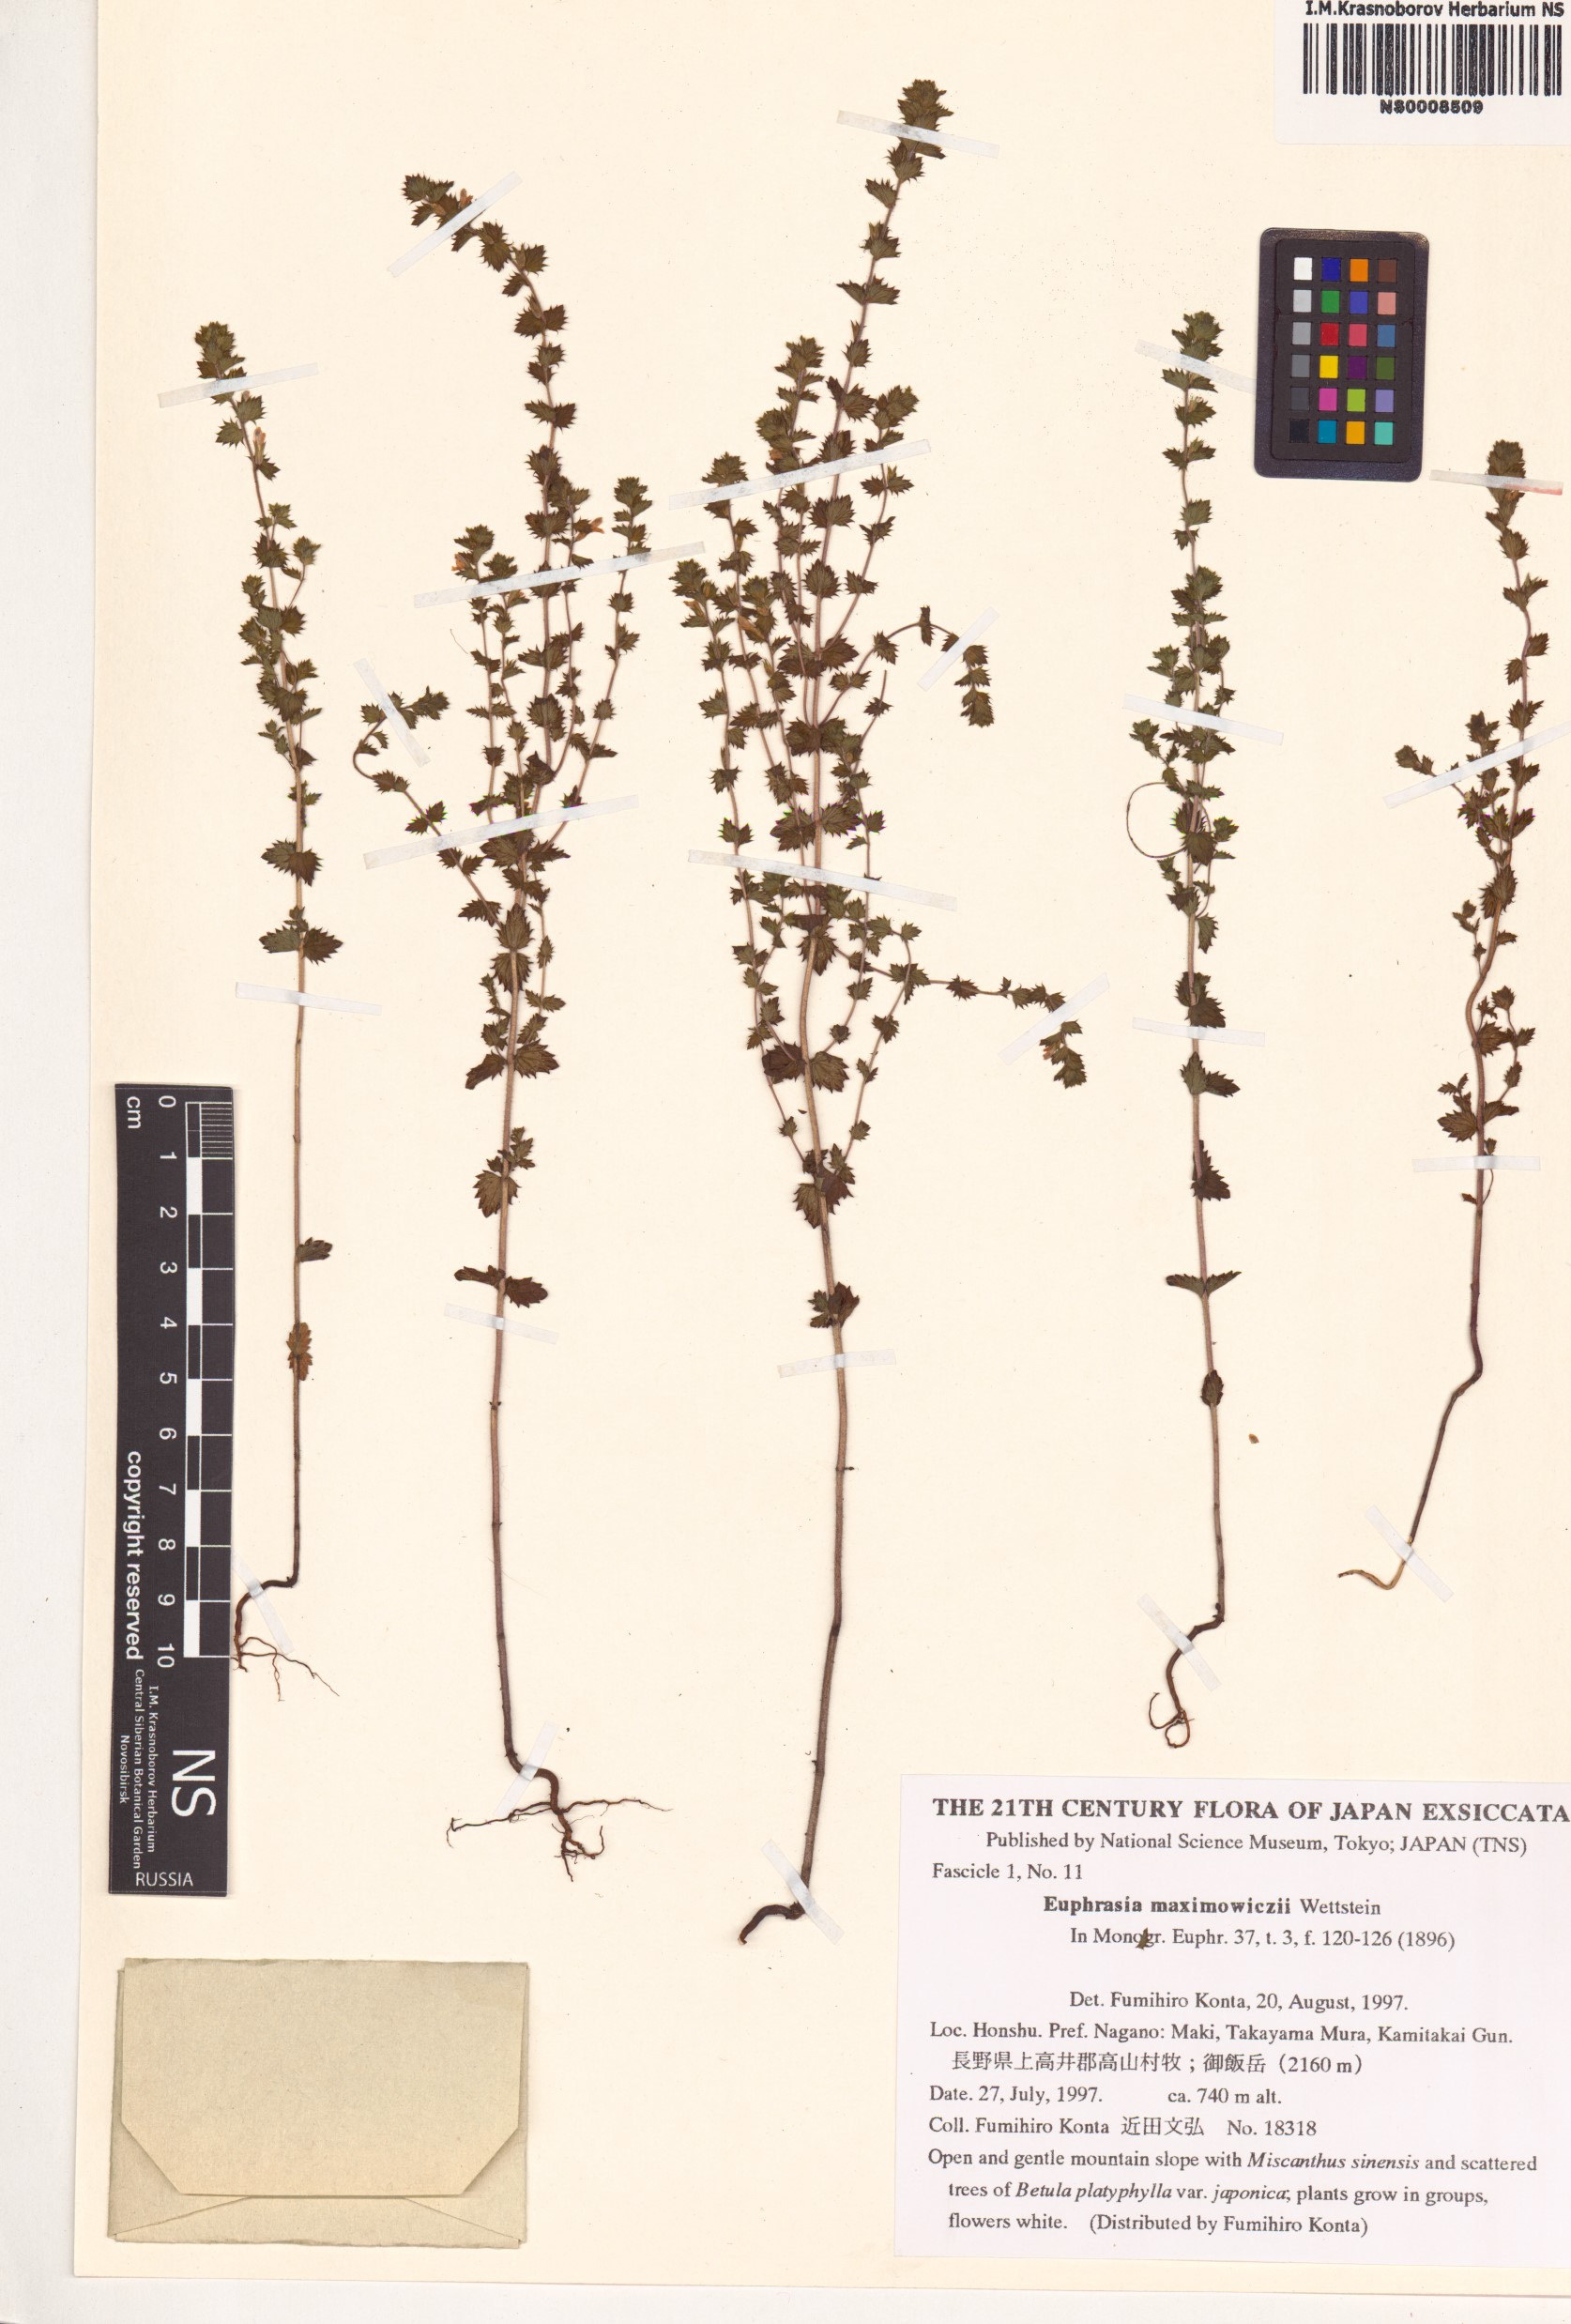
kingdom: Plantae
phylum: Tracheophyta
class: Magnoliopsida
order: Lamiales
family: Orobanchaceae
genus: Euphrasia
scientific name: Euphrasia maximowiczii
